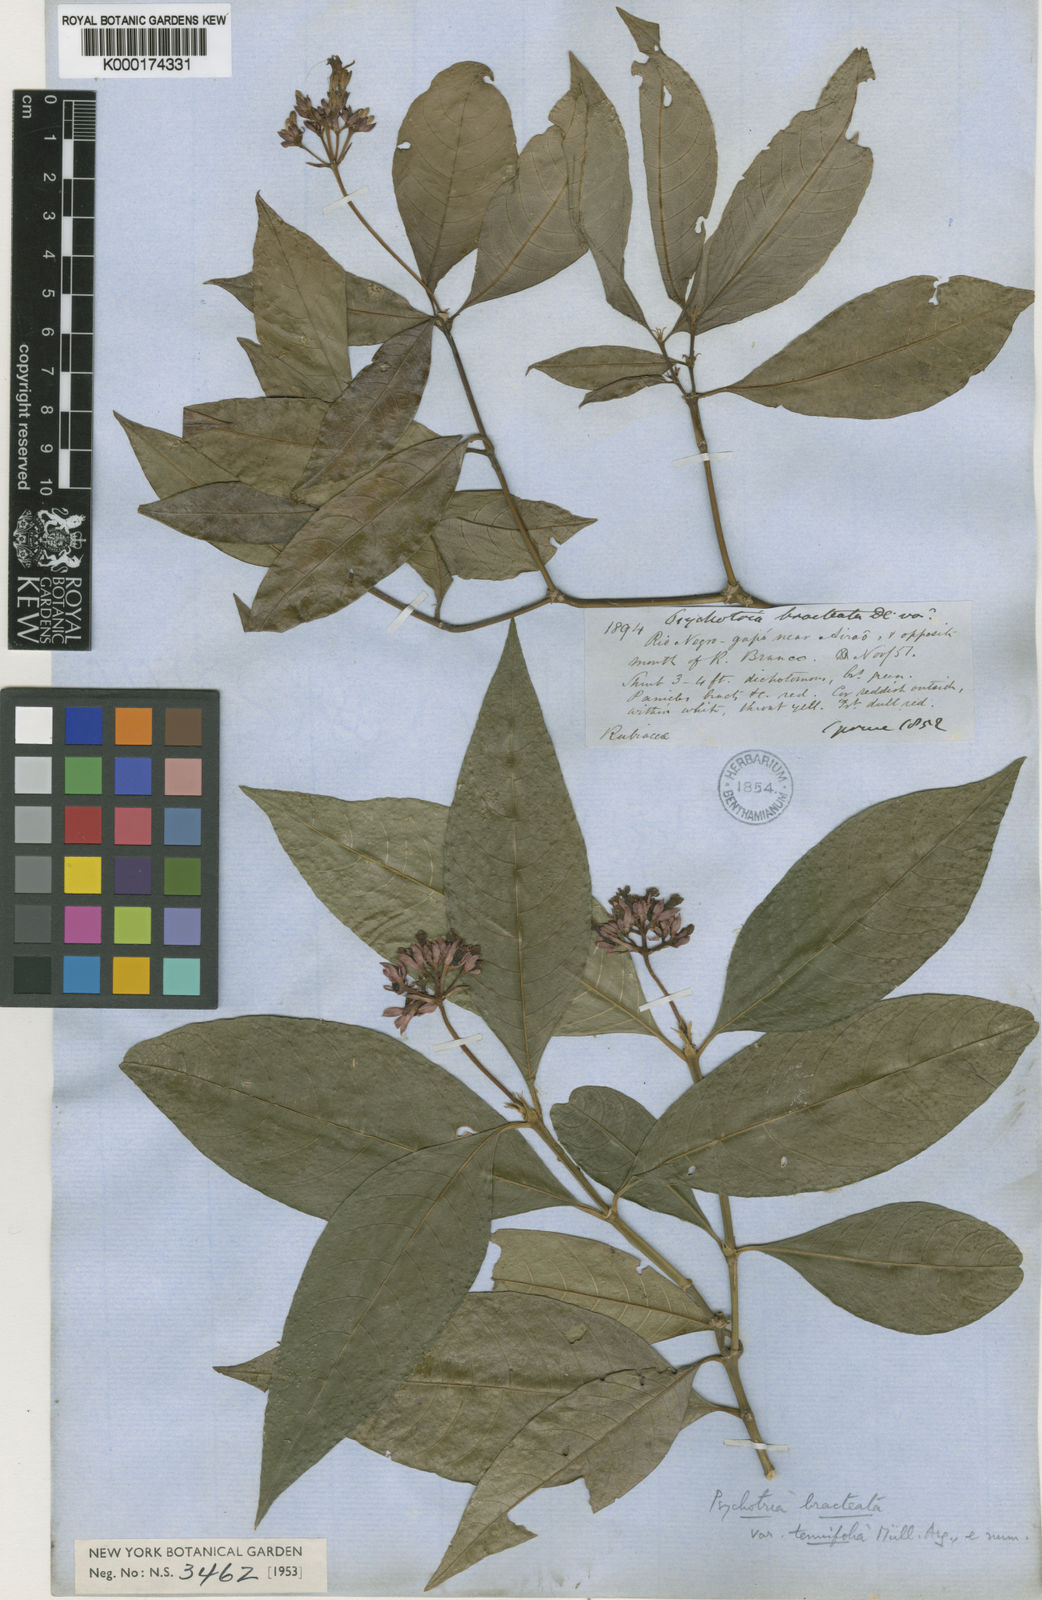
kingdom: Plantae
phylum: Tracheophyta
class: Magnoliopsida
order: Gentianales
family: Rubiaceae
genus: Palicourea
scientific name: Palicourea maguireorum
